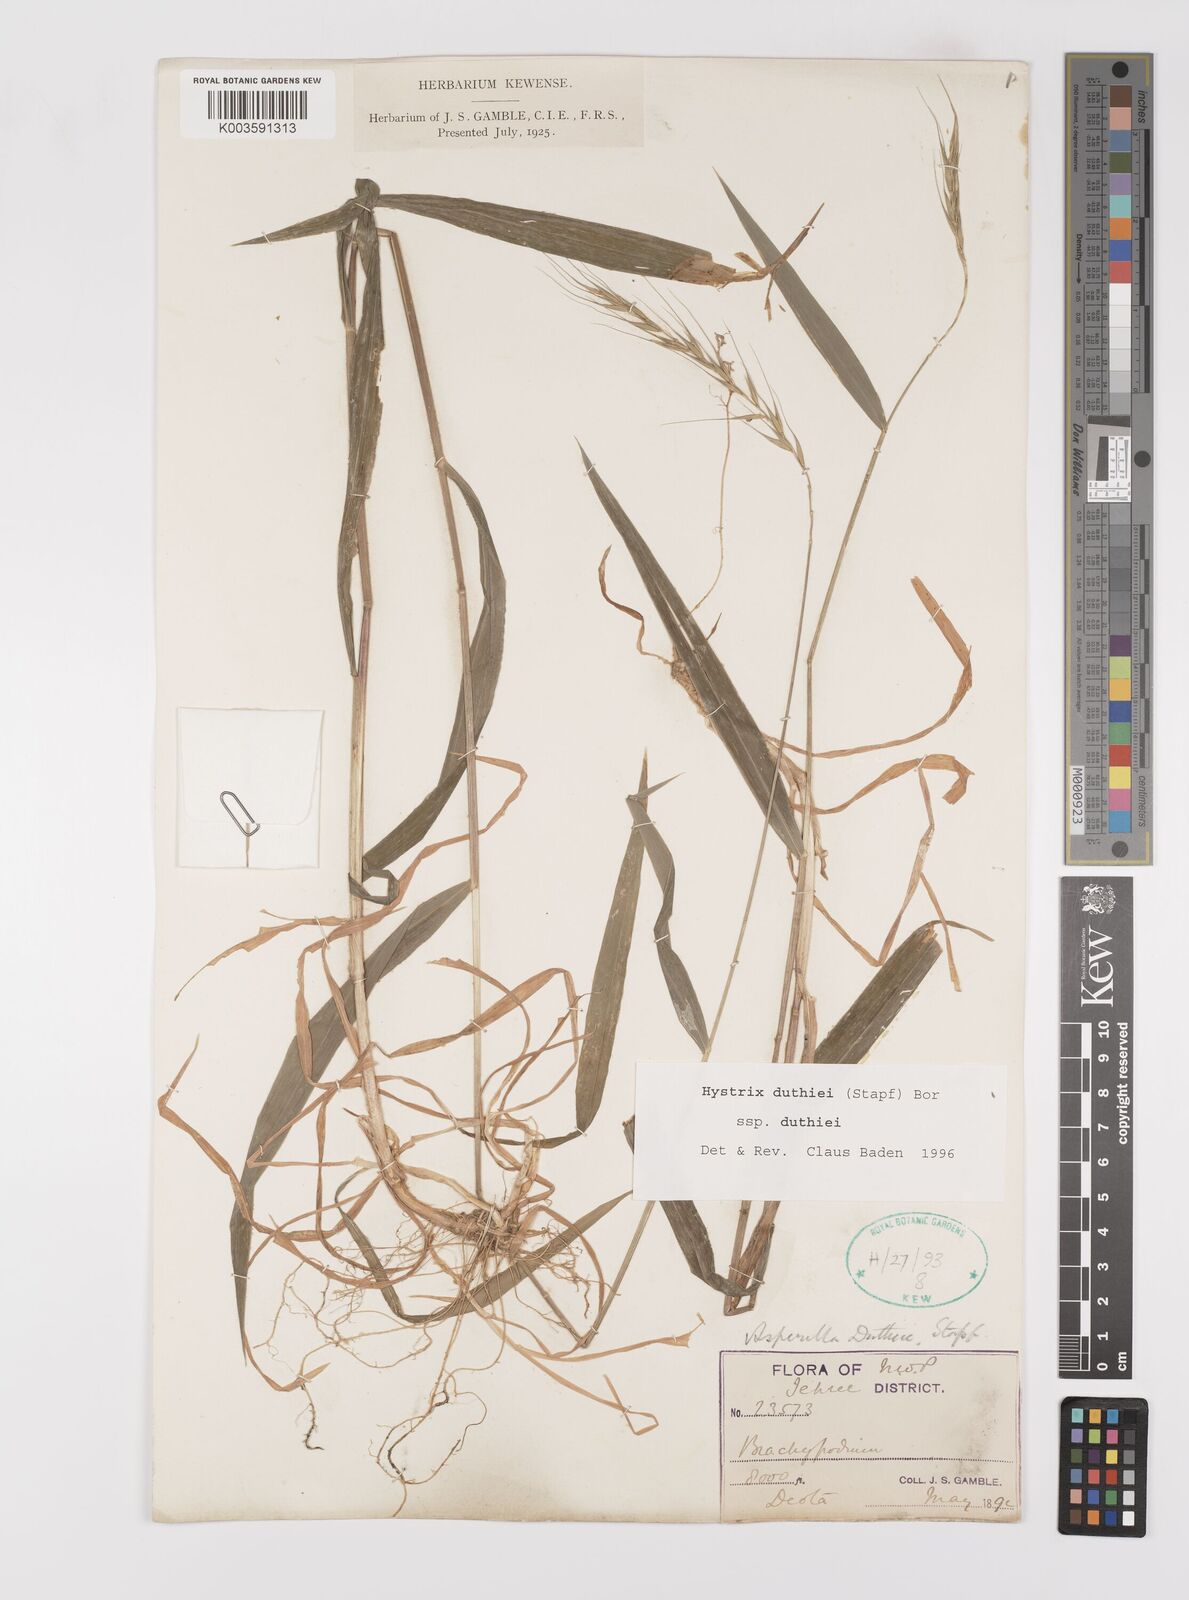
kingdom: Plantae
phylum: Tracheophyta
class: Liliopsida
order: Poales
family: Poaceae
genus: Leymus
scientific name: Leymus duthiei
